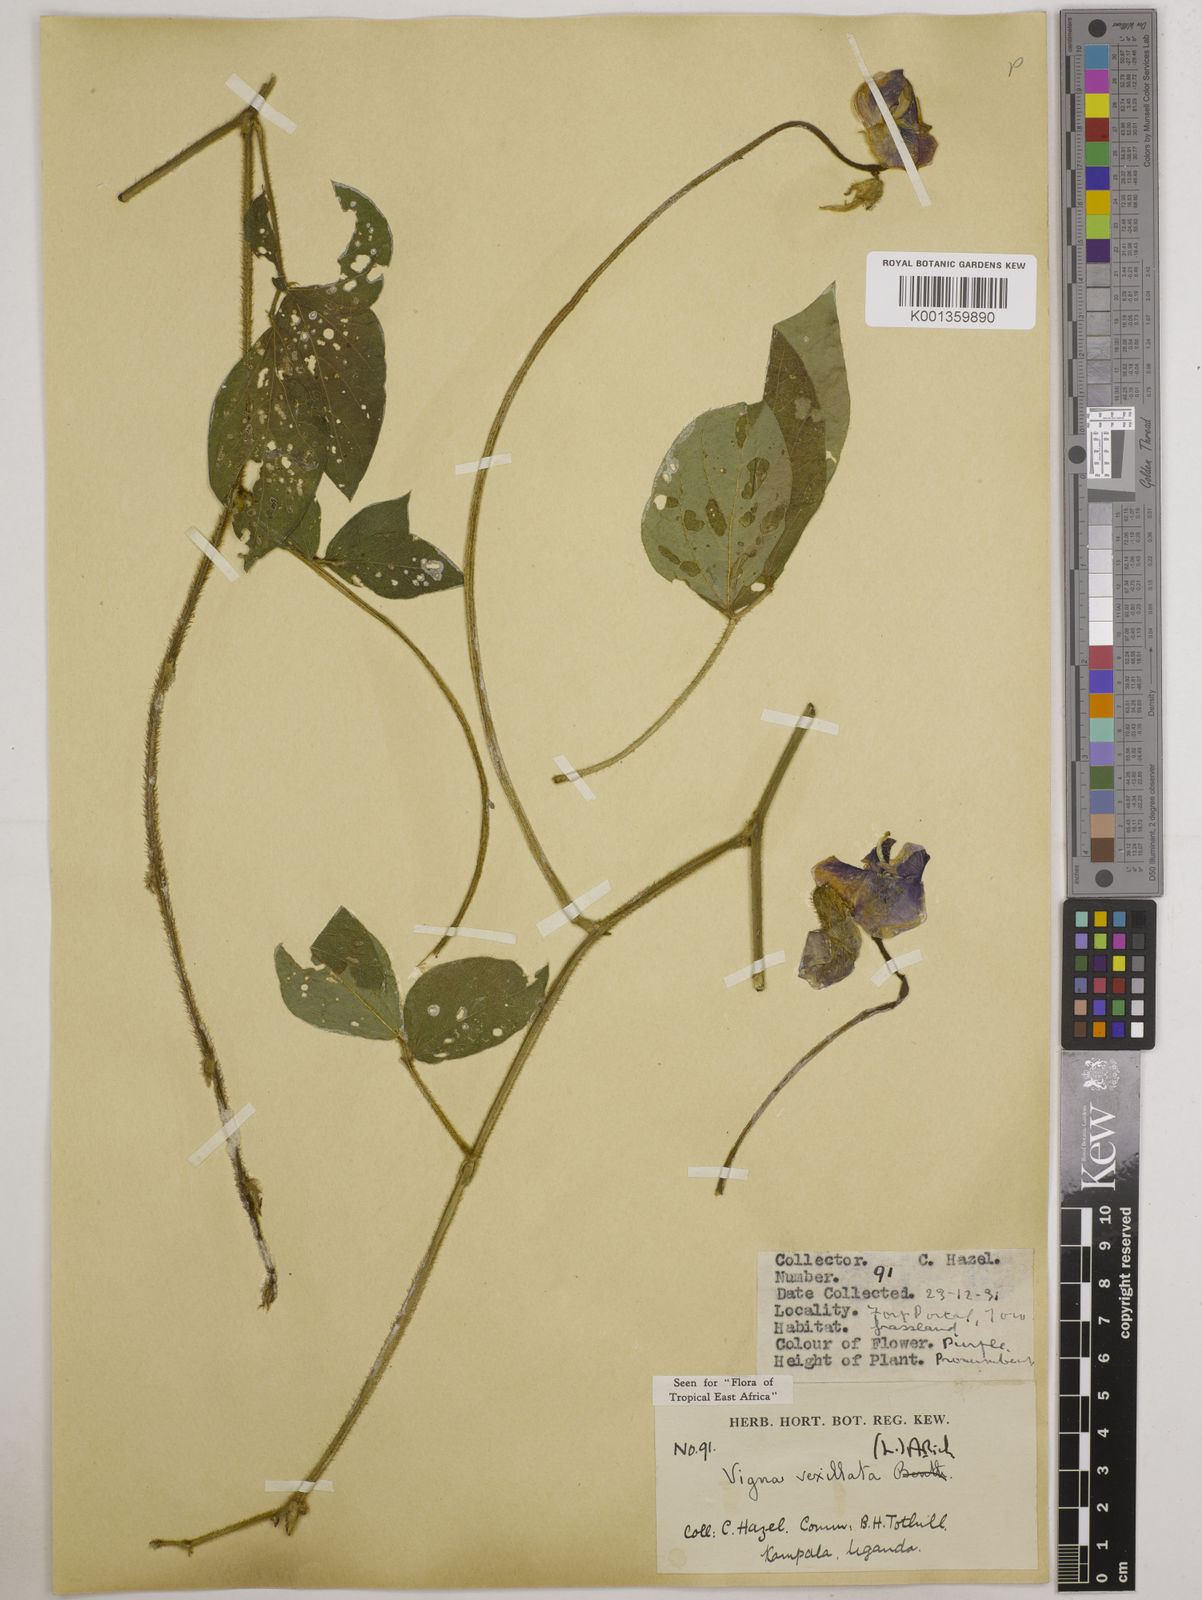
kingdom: Plantae
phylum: Tracheophyta
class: Magnoliopsida
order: Fabales
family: Fabaceae
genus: Vigna
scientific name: Vigna vexillata
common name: Zombi pea
